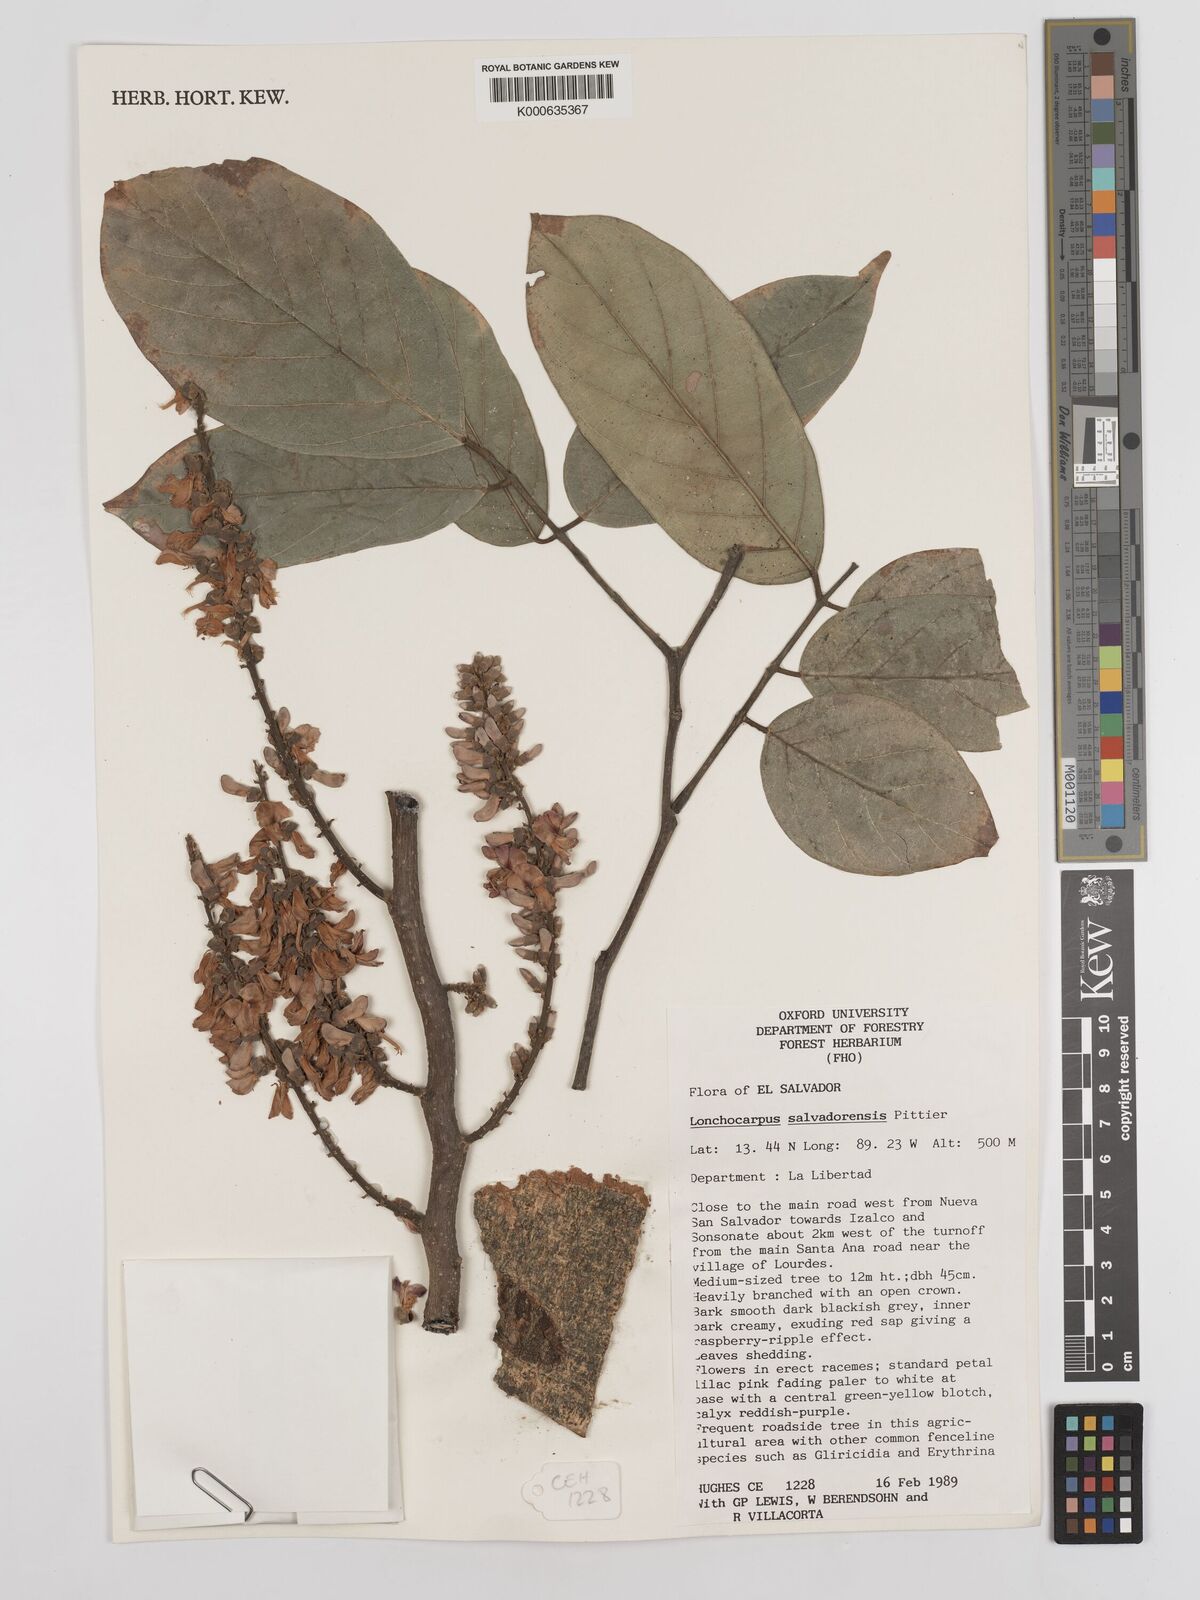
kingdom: Plantae
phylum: Tracheophyta
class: Magnoliopsida
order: Fabales
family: Fabaceae
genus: Lonchocarpus
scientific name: Lonchocarpus salvadorensis
